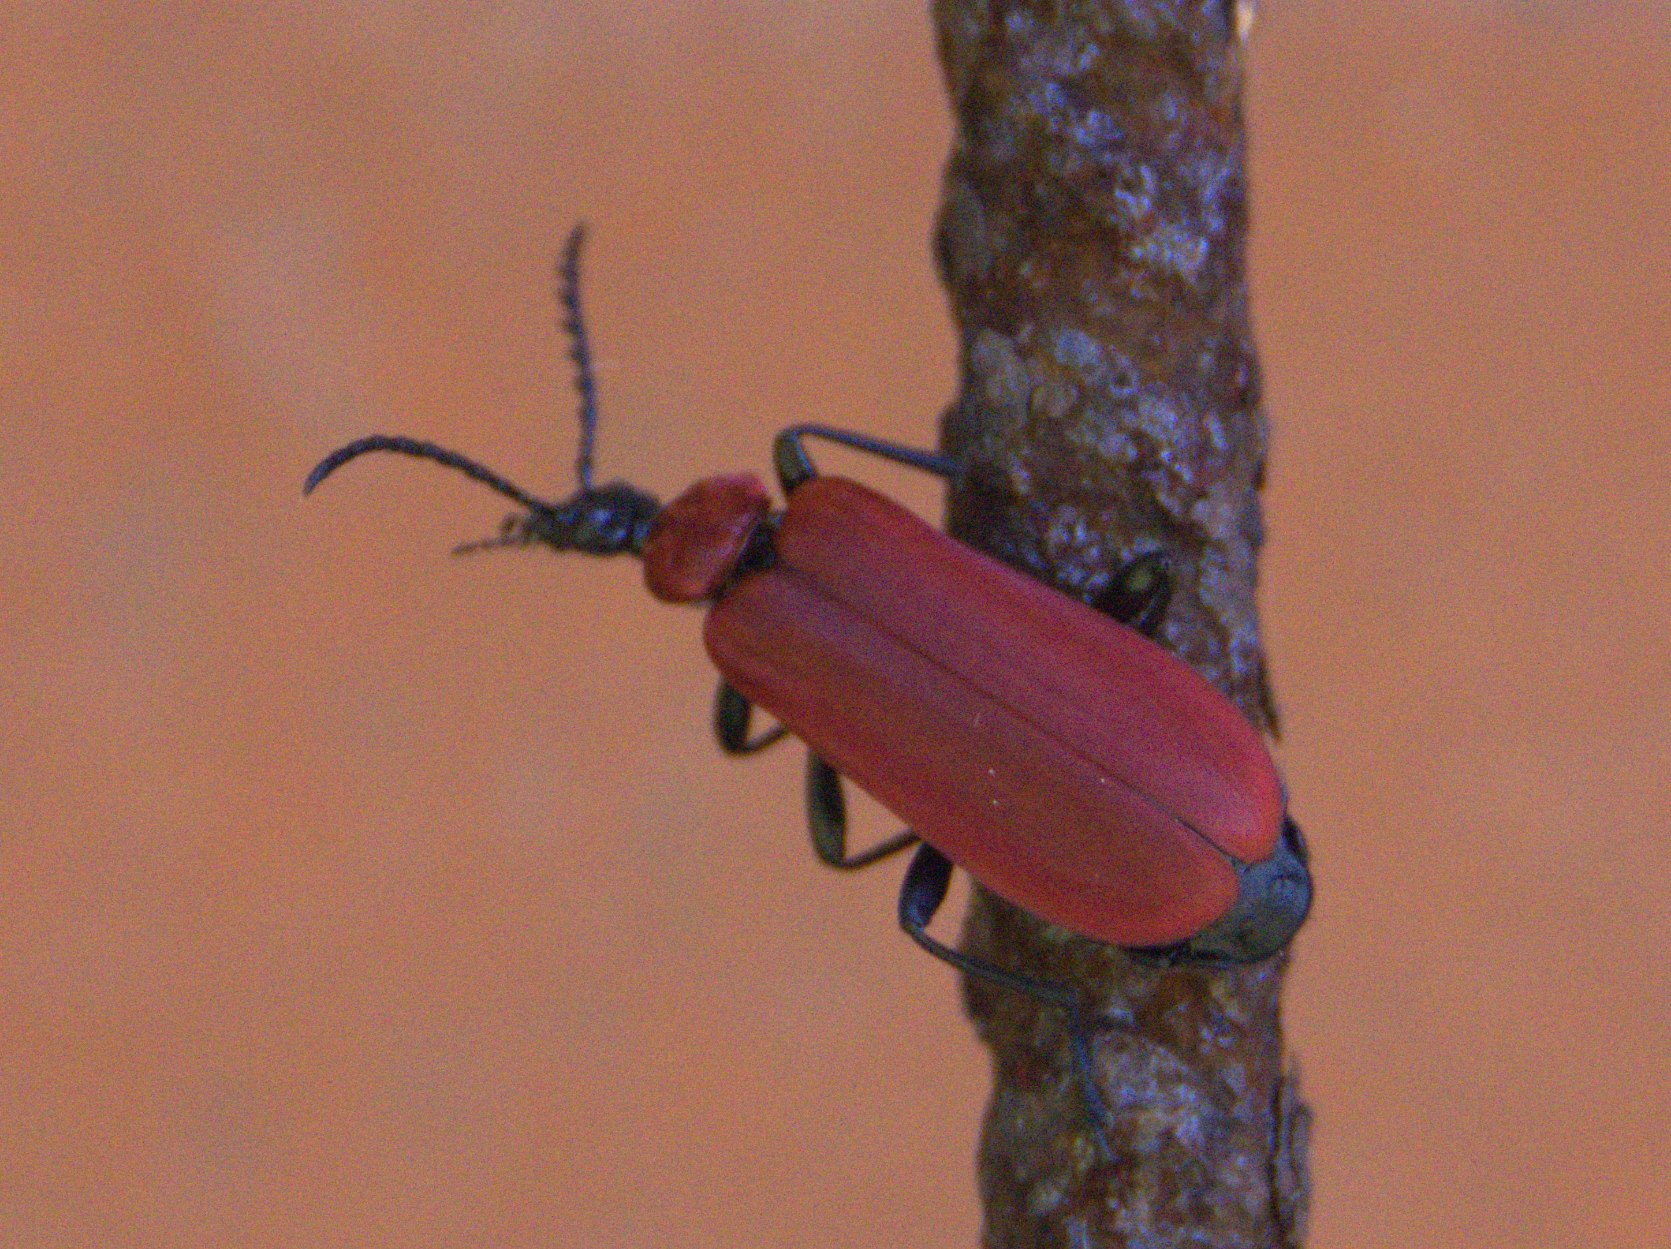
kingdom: Animalia
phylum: Arthropoda
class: Insecta
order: Coleoptera
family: Pyrochroidae
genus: Pyrochroa
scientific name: Pyrochroa coccinea
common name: Sorthovedet kardinalbille
